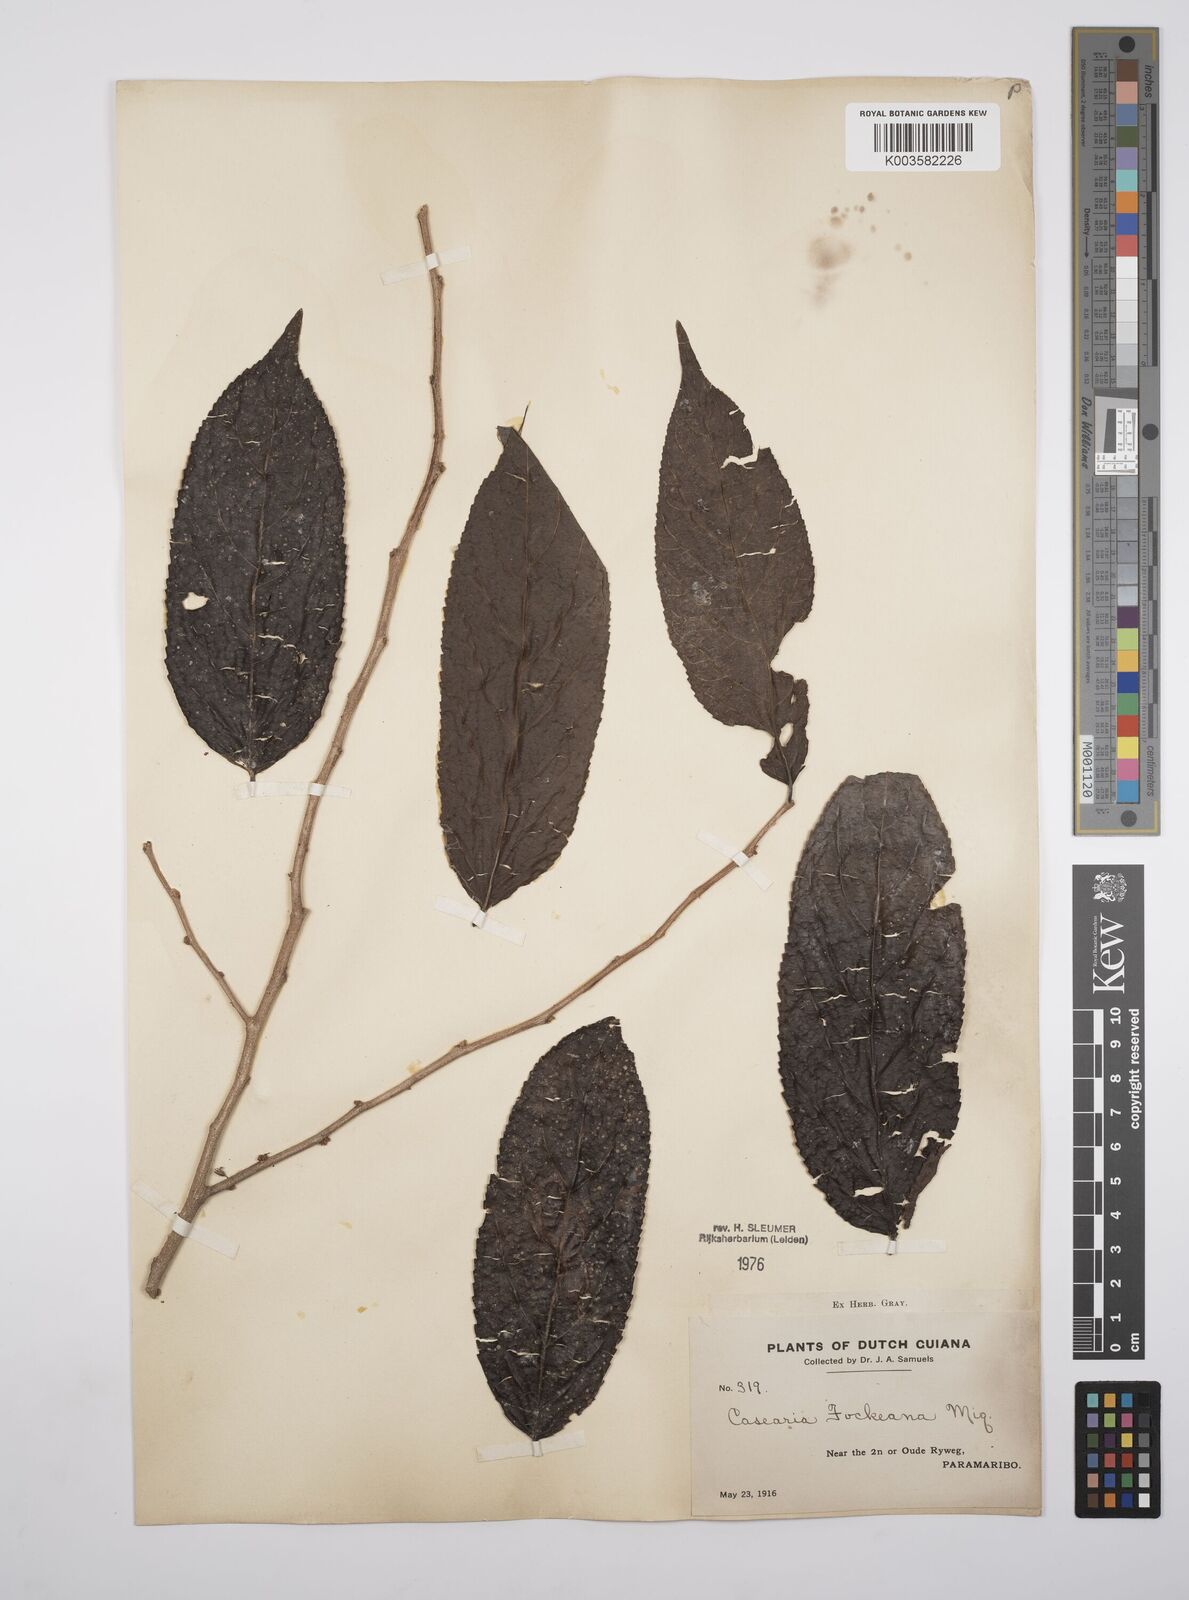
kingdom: Plantae
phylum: Tracheophyta
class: Magnoliopsida
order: Malpighiales
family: Salicaceae
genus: Casearia
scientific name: Casearia mariquitensis
